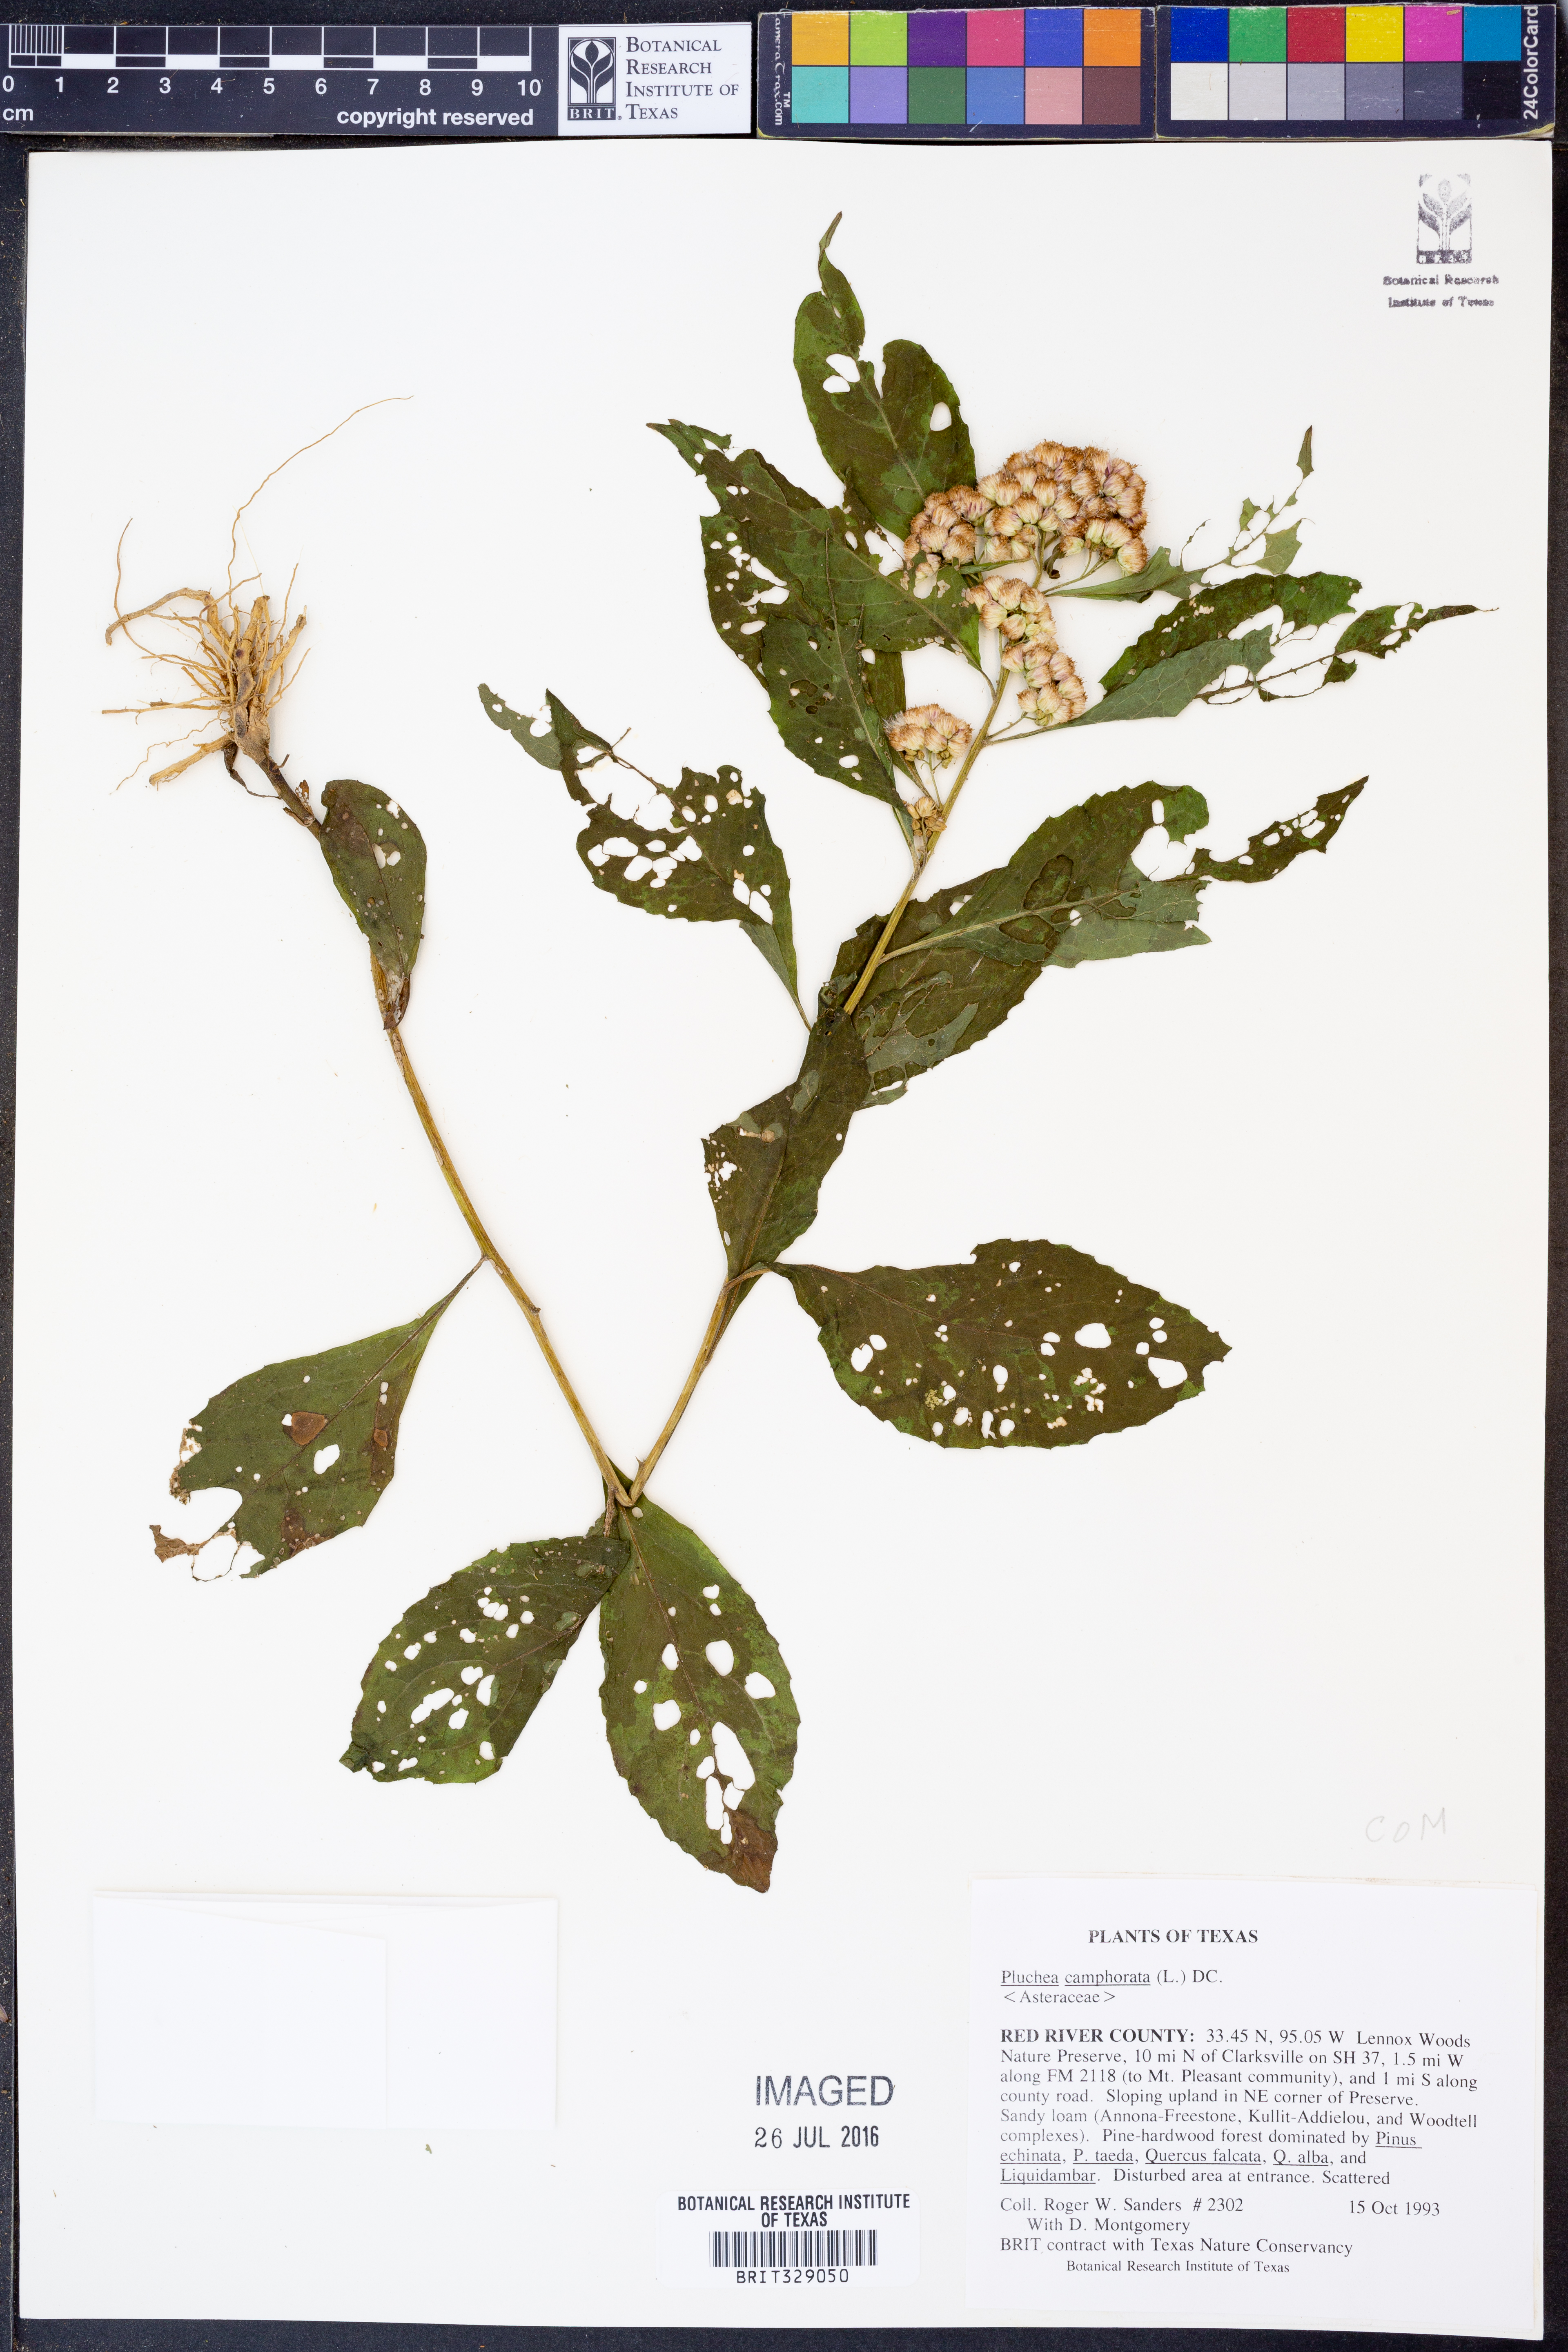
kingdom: Plantae
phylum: Tracheophyta
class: Magnoliopsida
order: Asterales
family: Asteraceae
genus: Pluchea
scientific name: Pluchea camphorata
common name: Camphor pluchea
